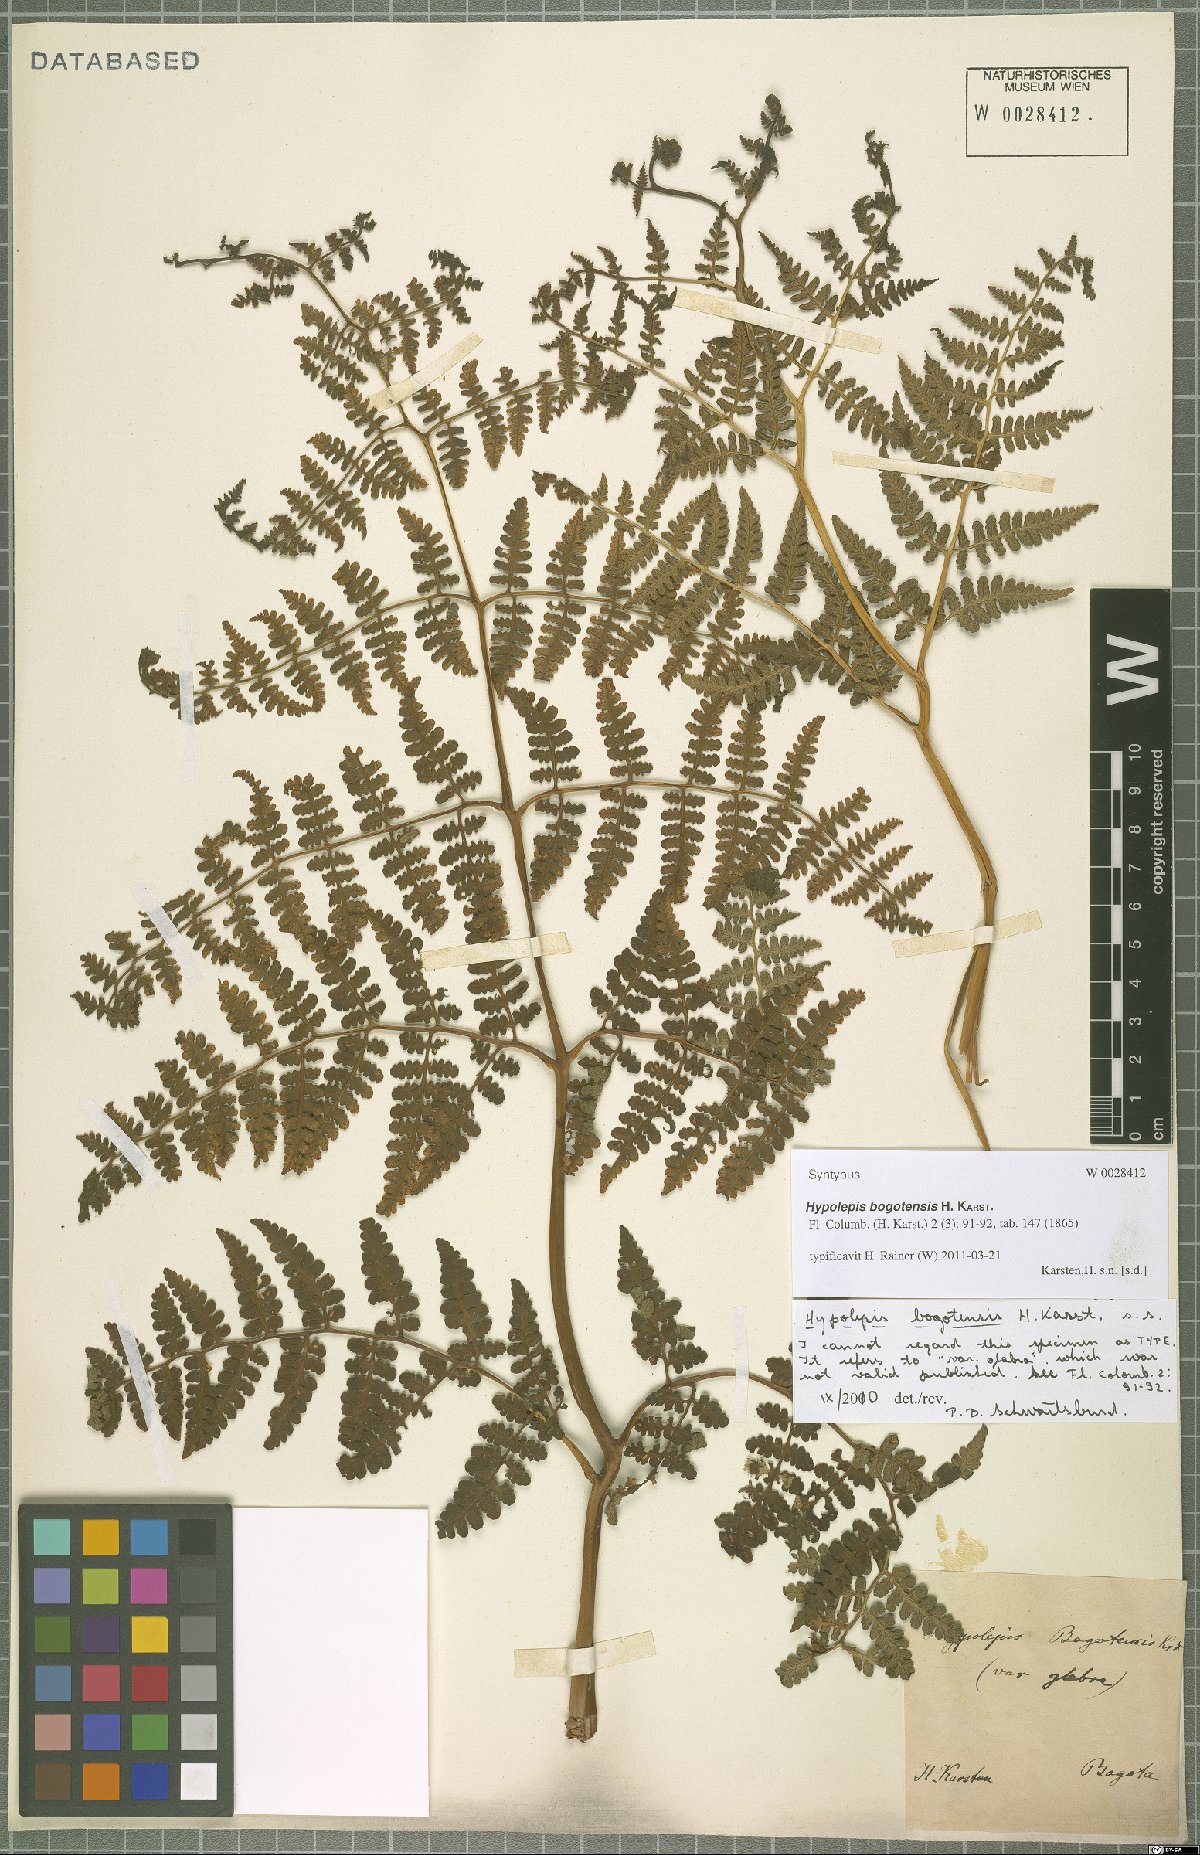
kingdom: Plantae
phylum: Tracheophyta
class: Polypodiopsida
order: Polypodiales
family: Dennstaedtiaceae
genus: Hypolepis
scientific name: Hypolepis bogotensis
